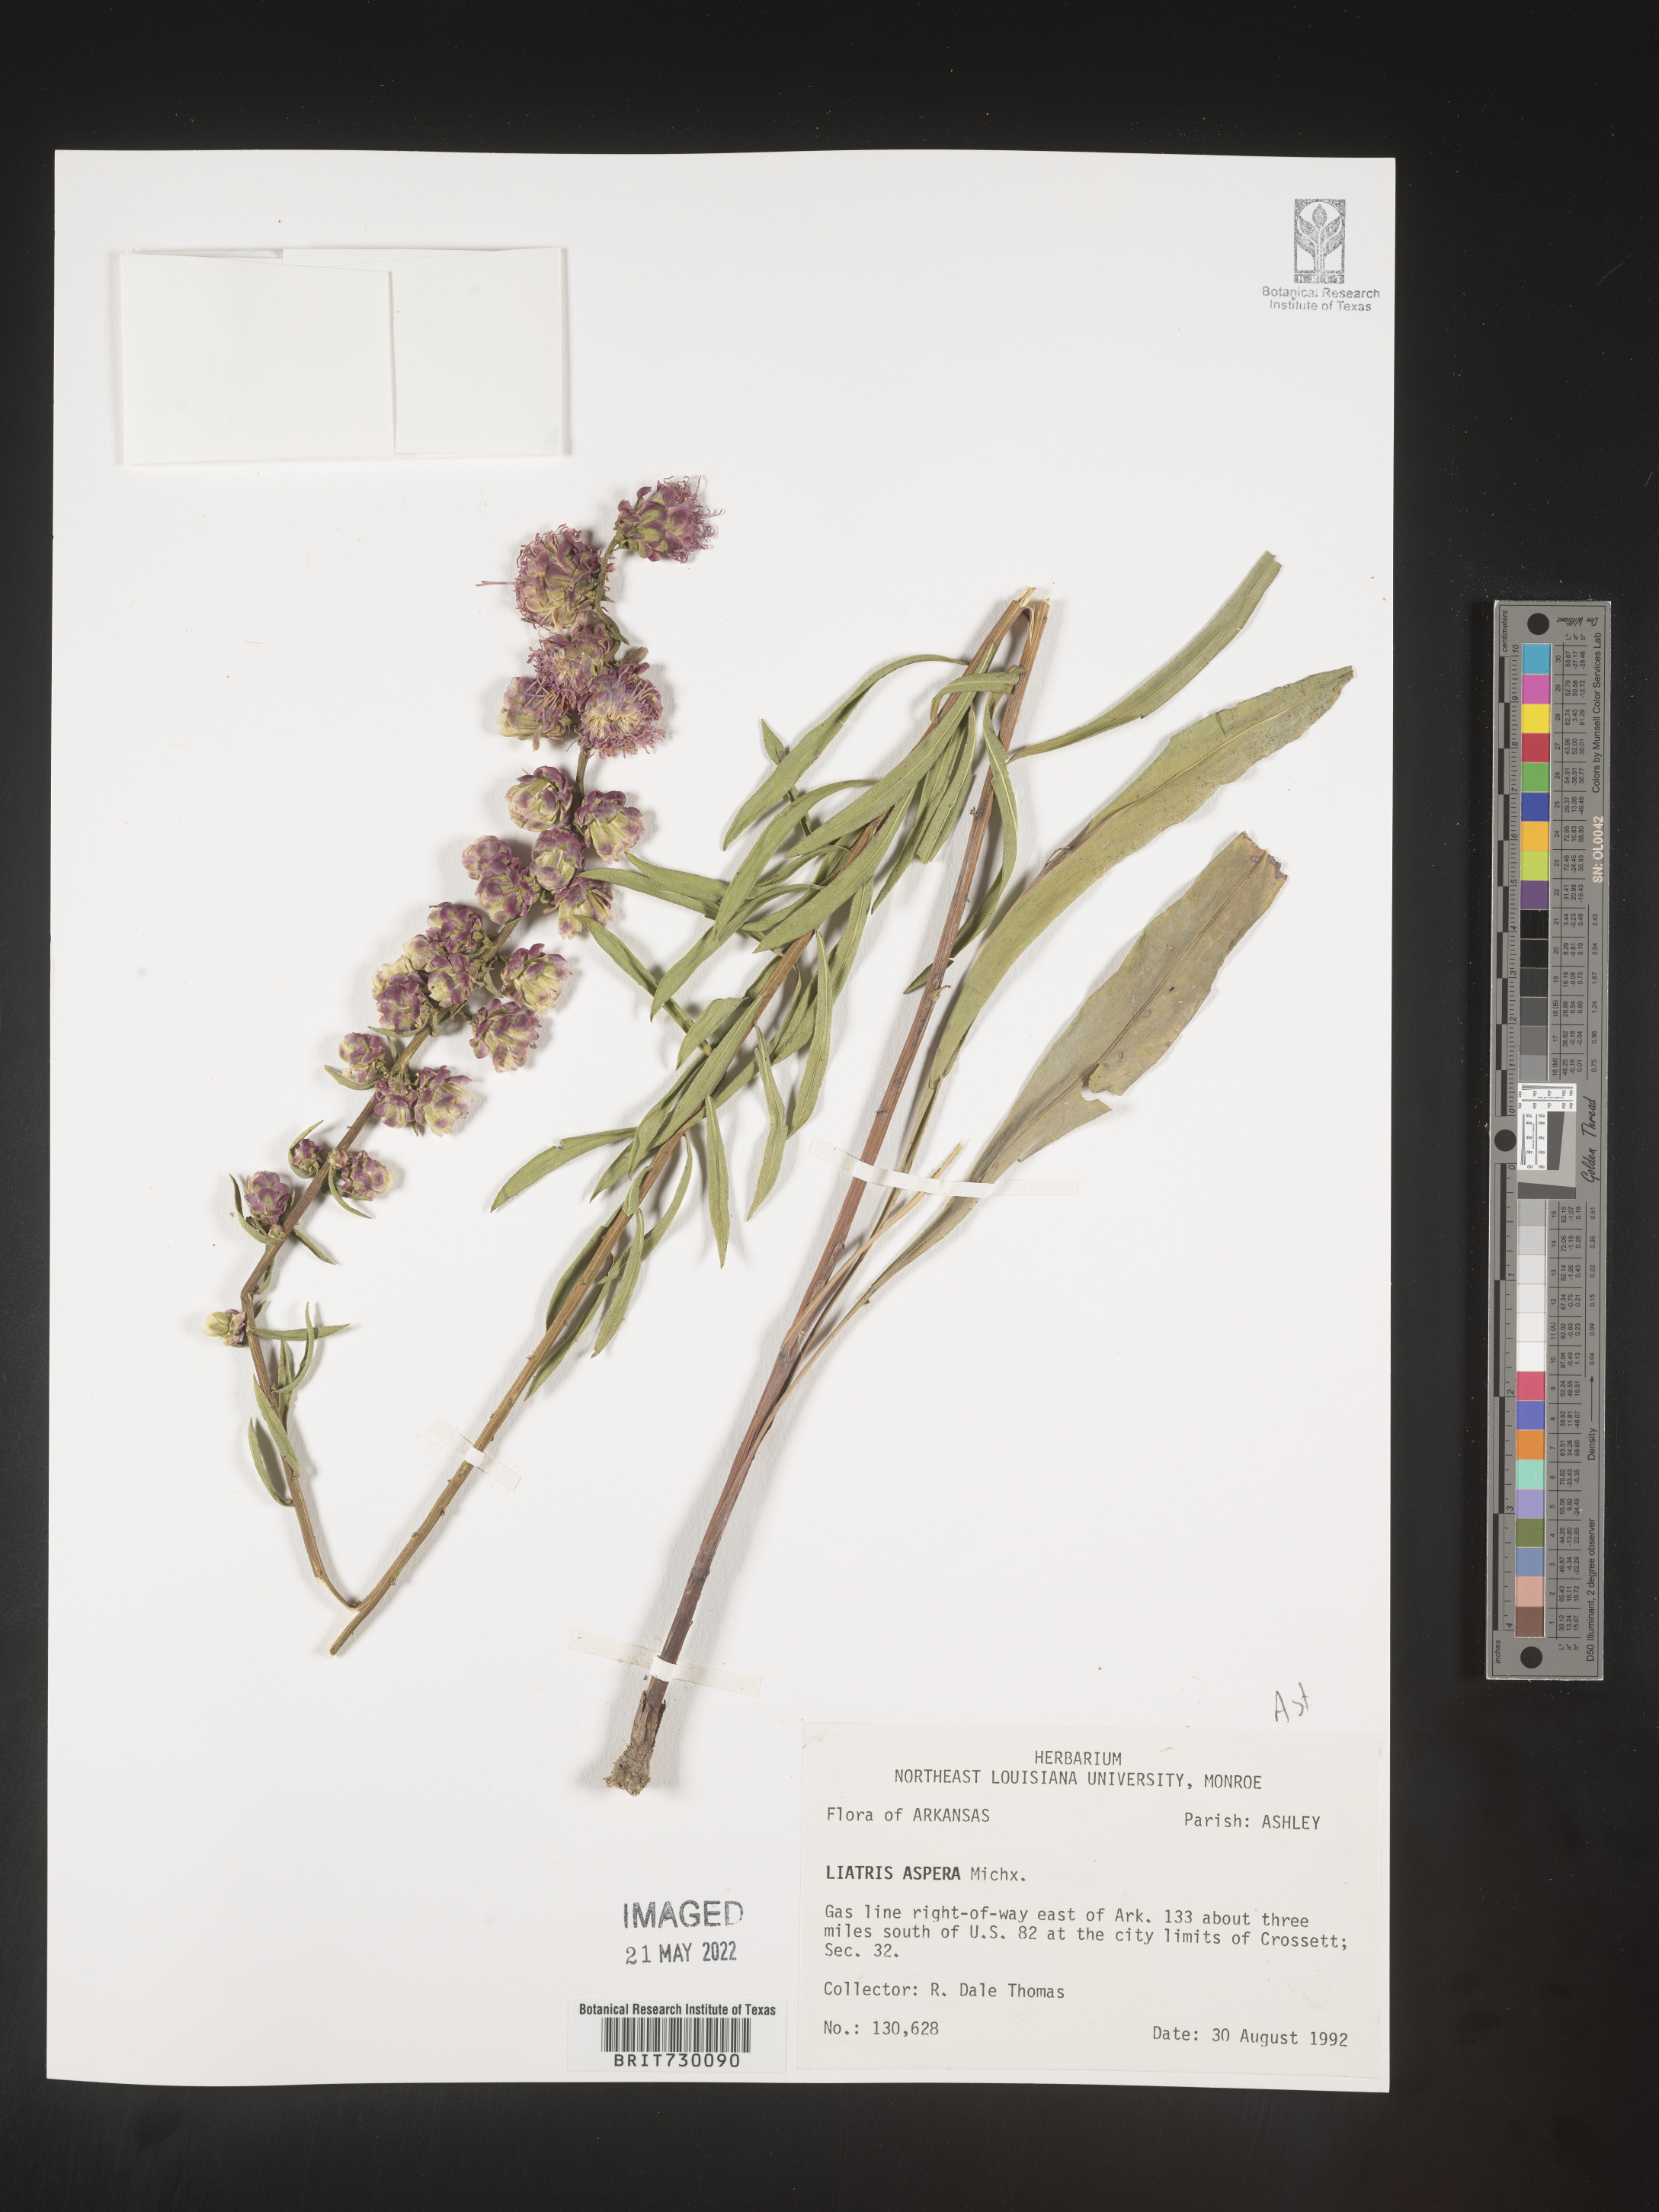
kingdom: Plantae
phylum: Tracheophyta
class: Magnoliopsida
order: Asterales
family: Asteraceae
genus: Liatris
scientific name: Liatris aspera
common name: Lacerate blazing-star
